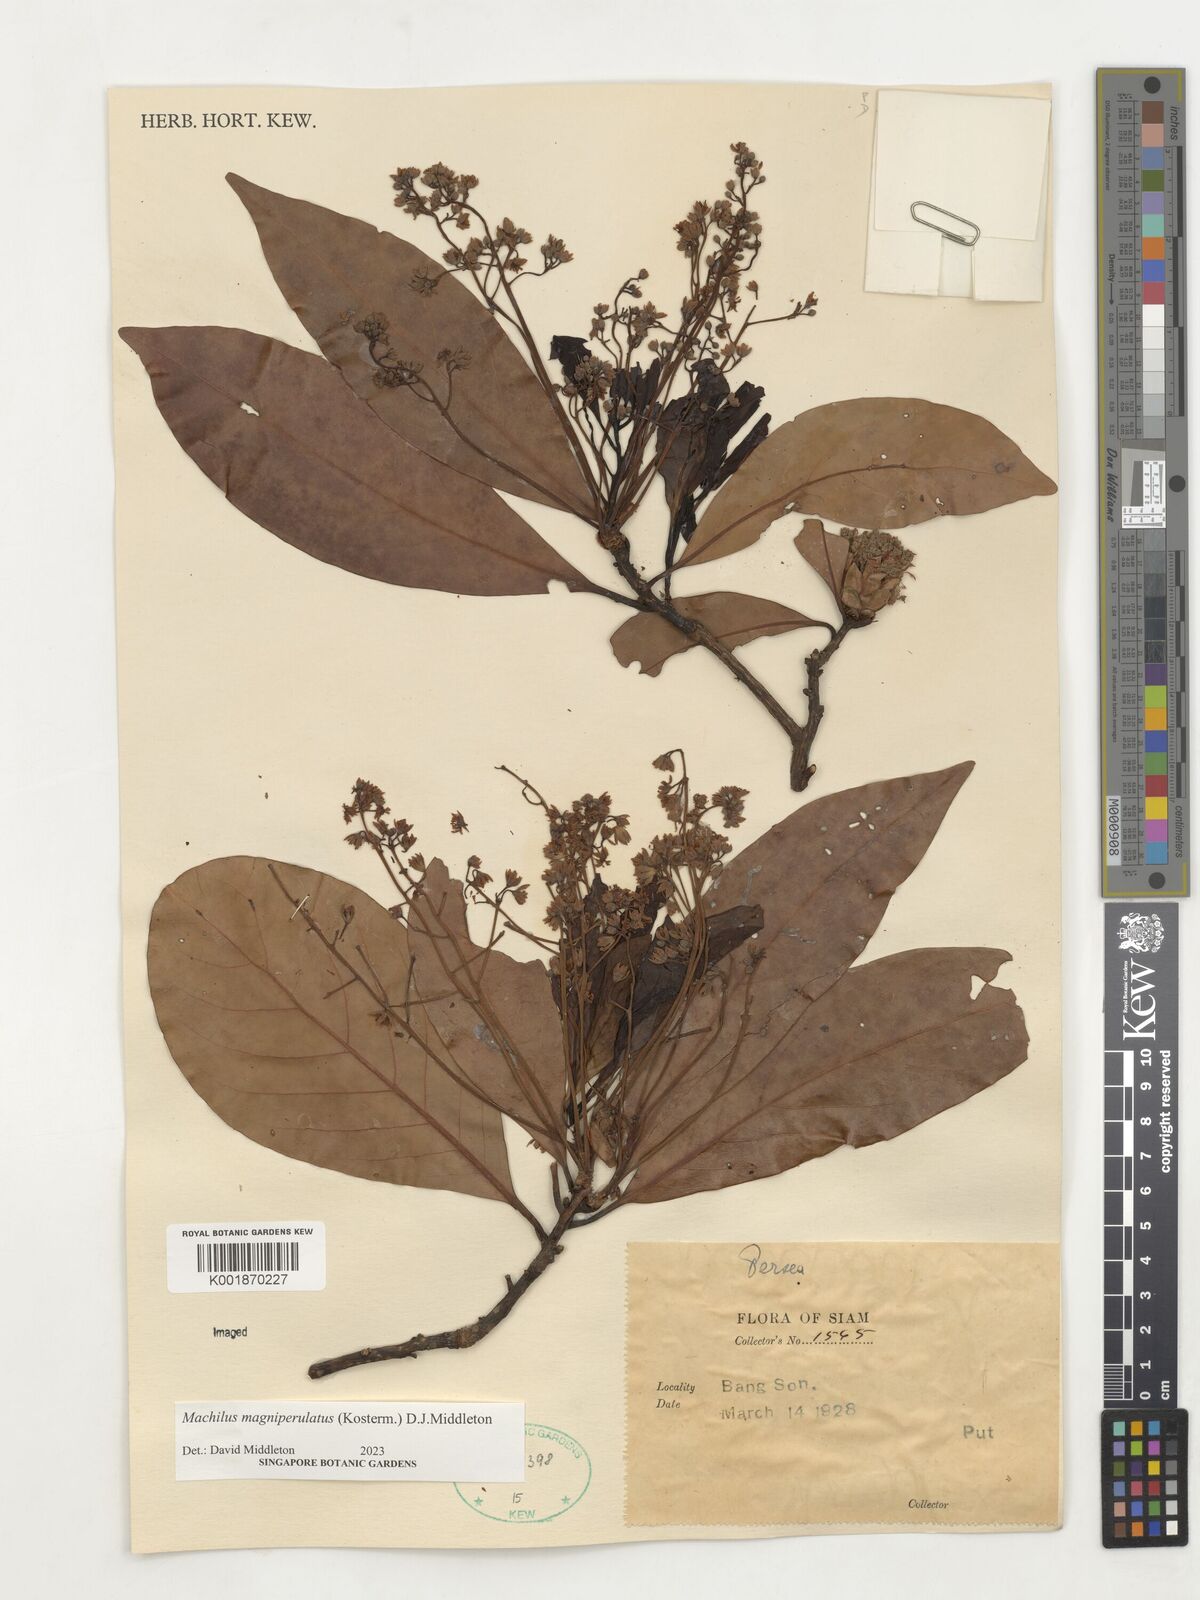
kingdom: Plantae
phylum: Tracheophyta
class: Magnoliopsida
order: Laurales
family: Lauraceae
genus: Machilus
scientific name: Machilus
